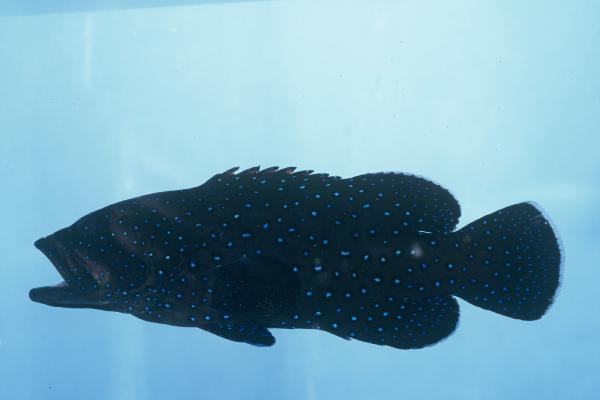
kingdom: Animalia
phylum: Chordata
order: Perciformes
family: Serranidae
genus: Cephalopholis
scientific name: Cephalopholis argus
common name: Peacock grouper
